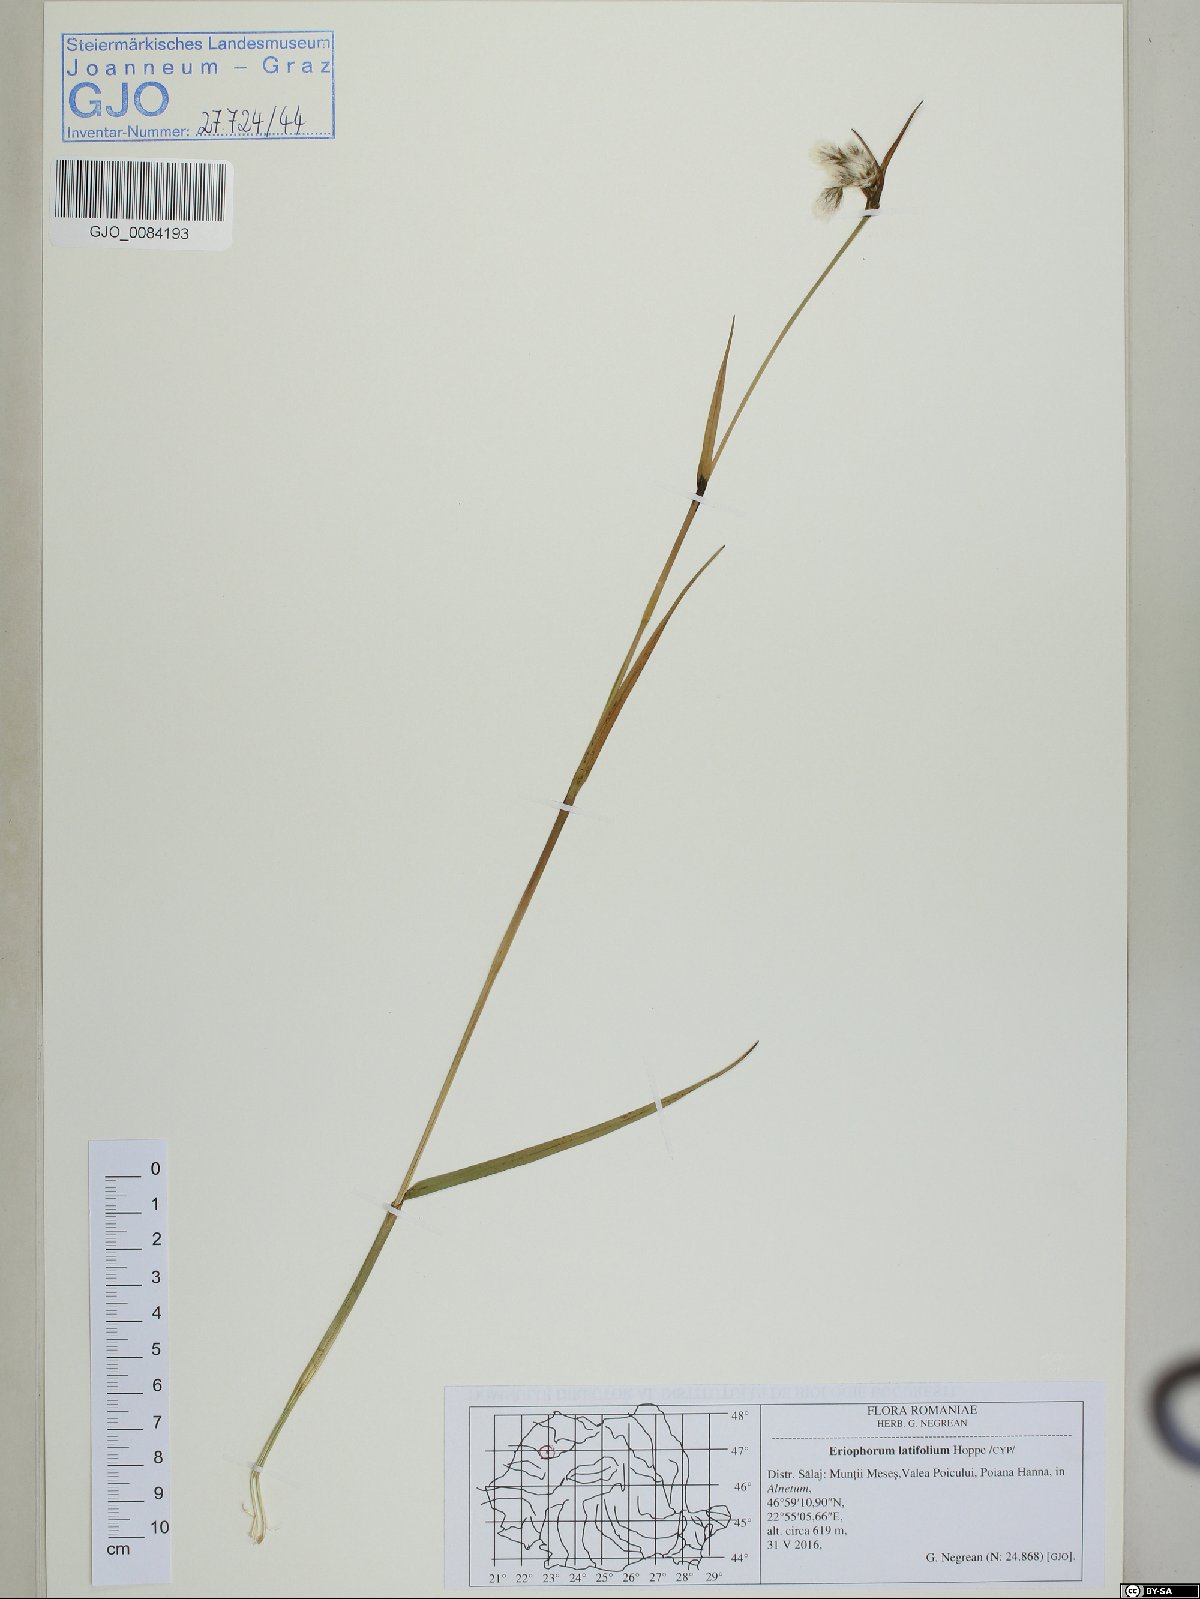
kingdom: Plantae
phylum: Tracheophyta
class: Liliopsida
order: Poales
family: Cyperaceae
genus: Eriophorum
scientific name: Eriophorum latifolium
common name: Broad-leaved cottongrass
